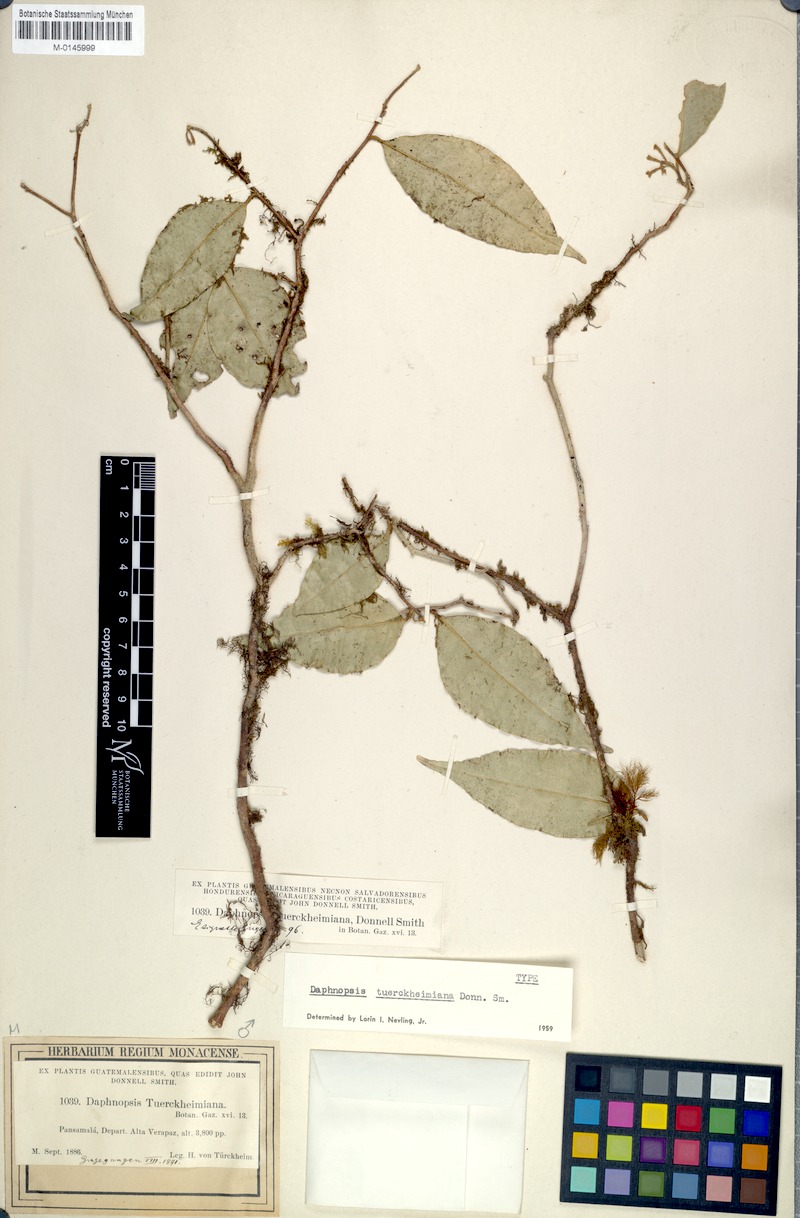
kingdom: Plantae
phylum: Tracheophyta
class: Magnoliopsida
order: Malvales
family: Thymelaeaceae
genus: Daphnopsis
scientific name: Daphnopsis tuerckheimiana
